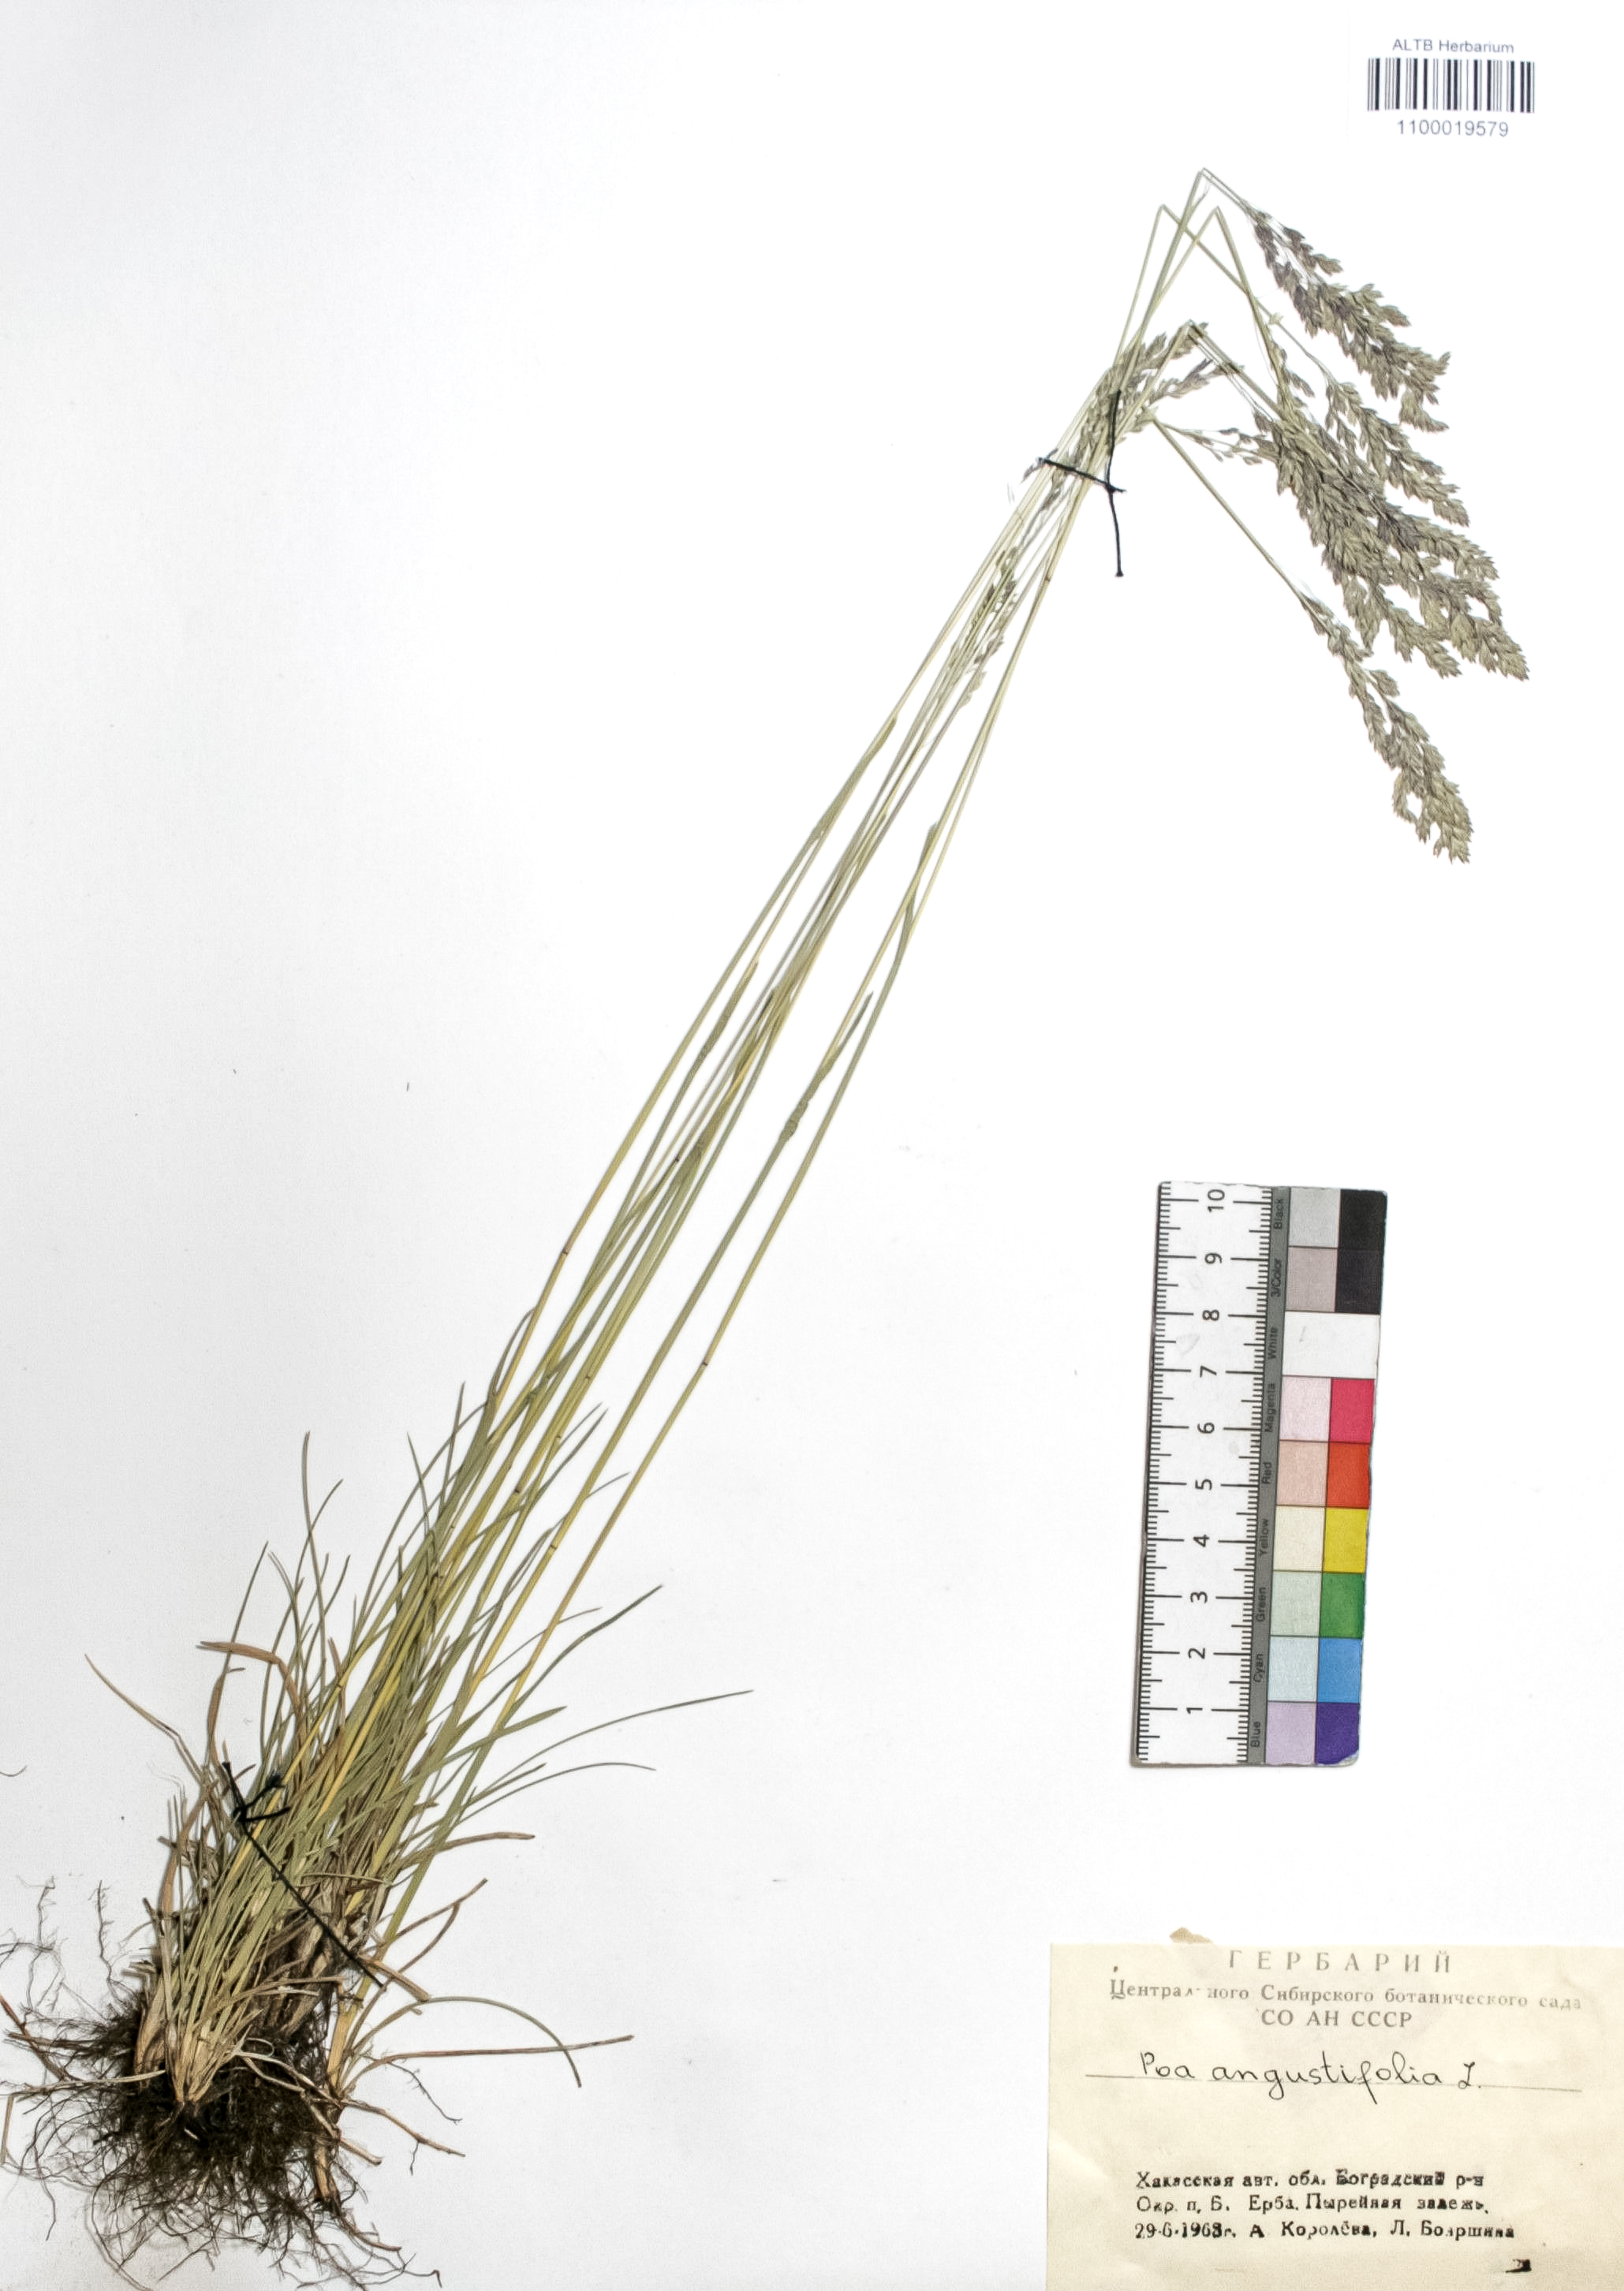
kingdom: Plantae
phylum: Tracheophyta
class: Liliopsida
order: Poales
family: Poaceae
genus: Poa
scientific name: Poa angustifolia
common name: Narrow-leaved meadow-grass
